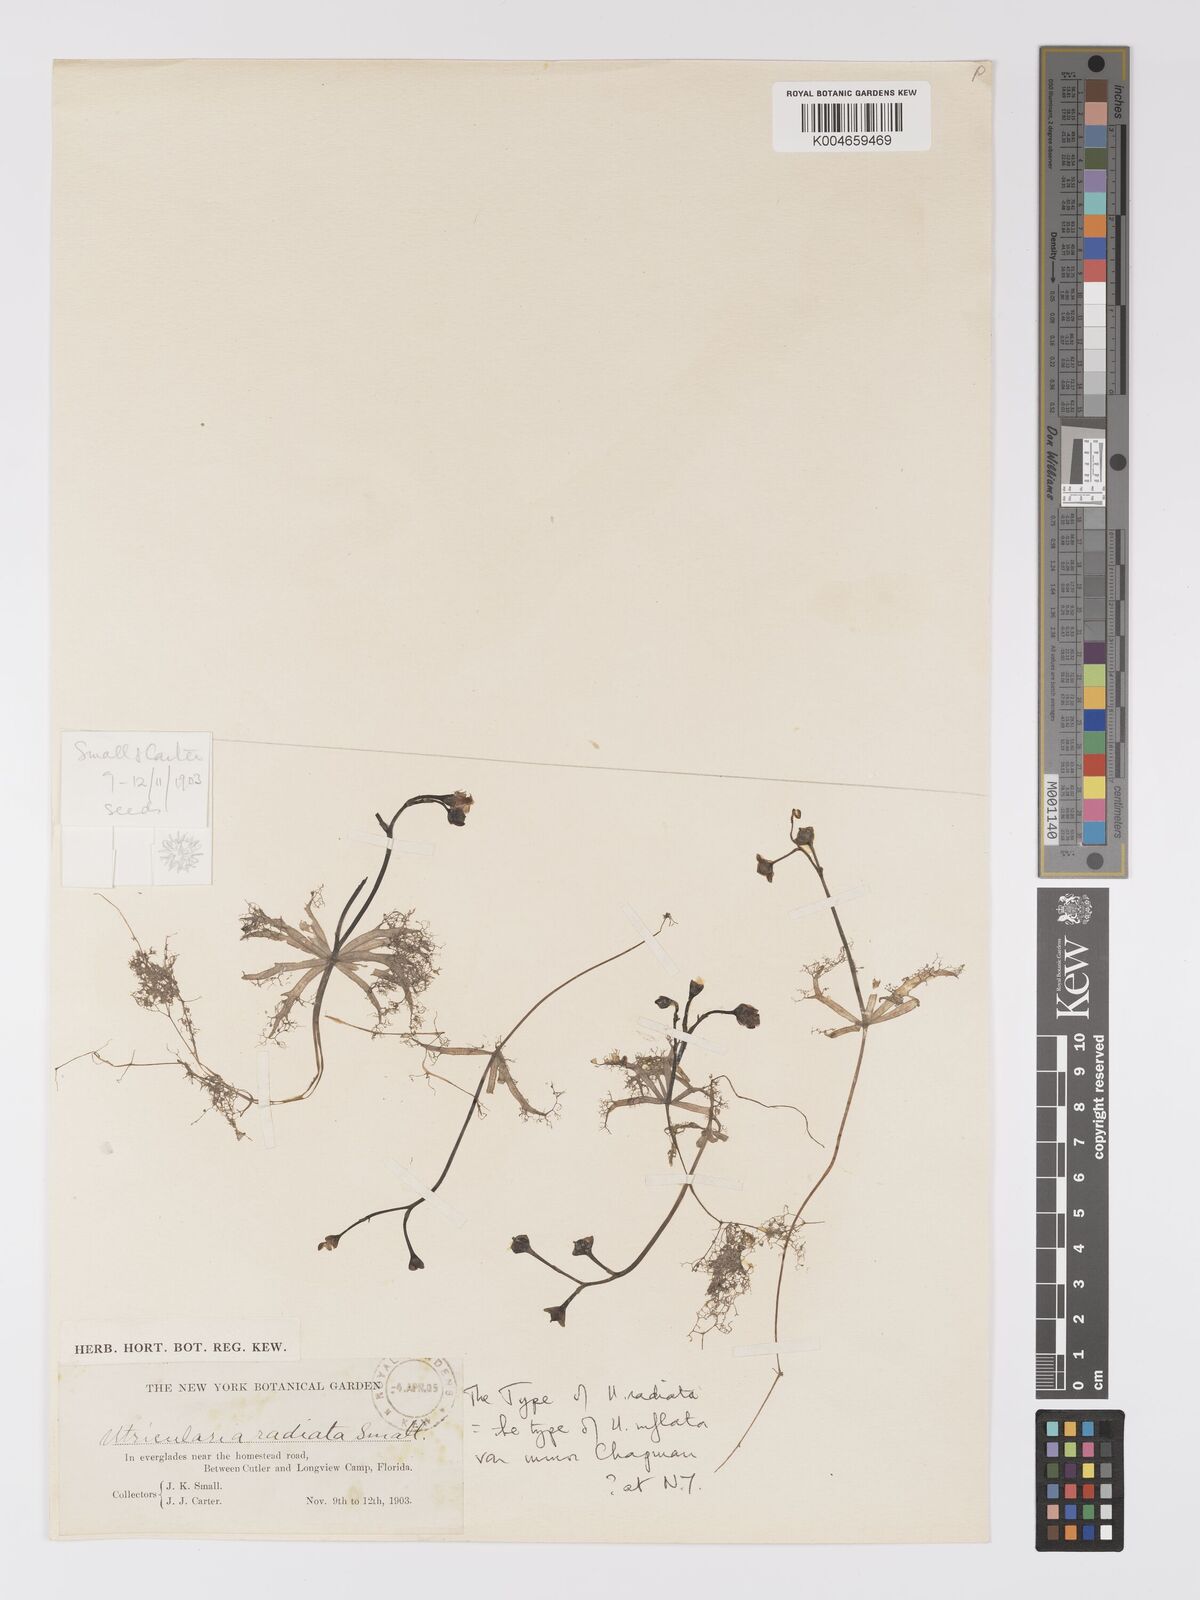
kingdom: Plantae
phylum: Tracheophyta
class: Magnoliopsida
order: Lamiales
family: Lentibulariaceae
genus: Utricularia
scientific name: Utricularia radiata
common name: Floating bladderwort
